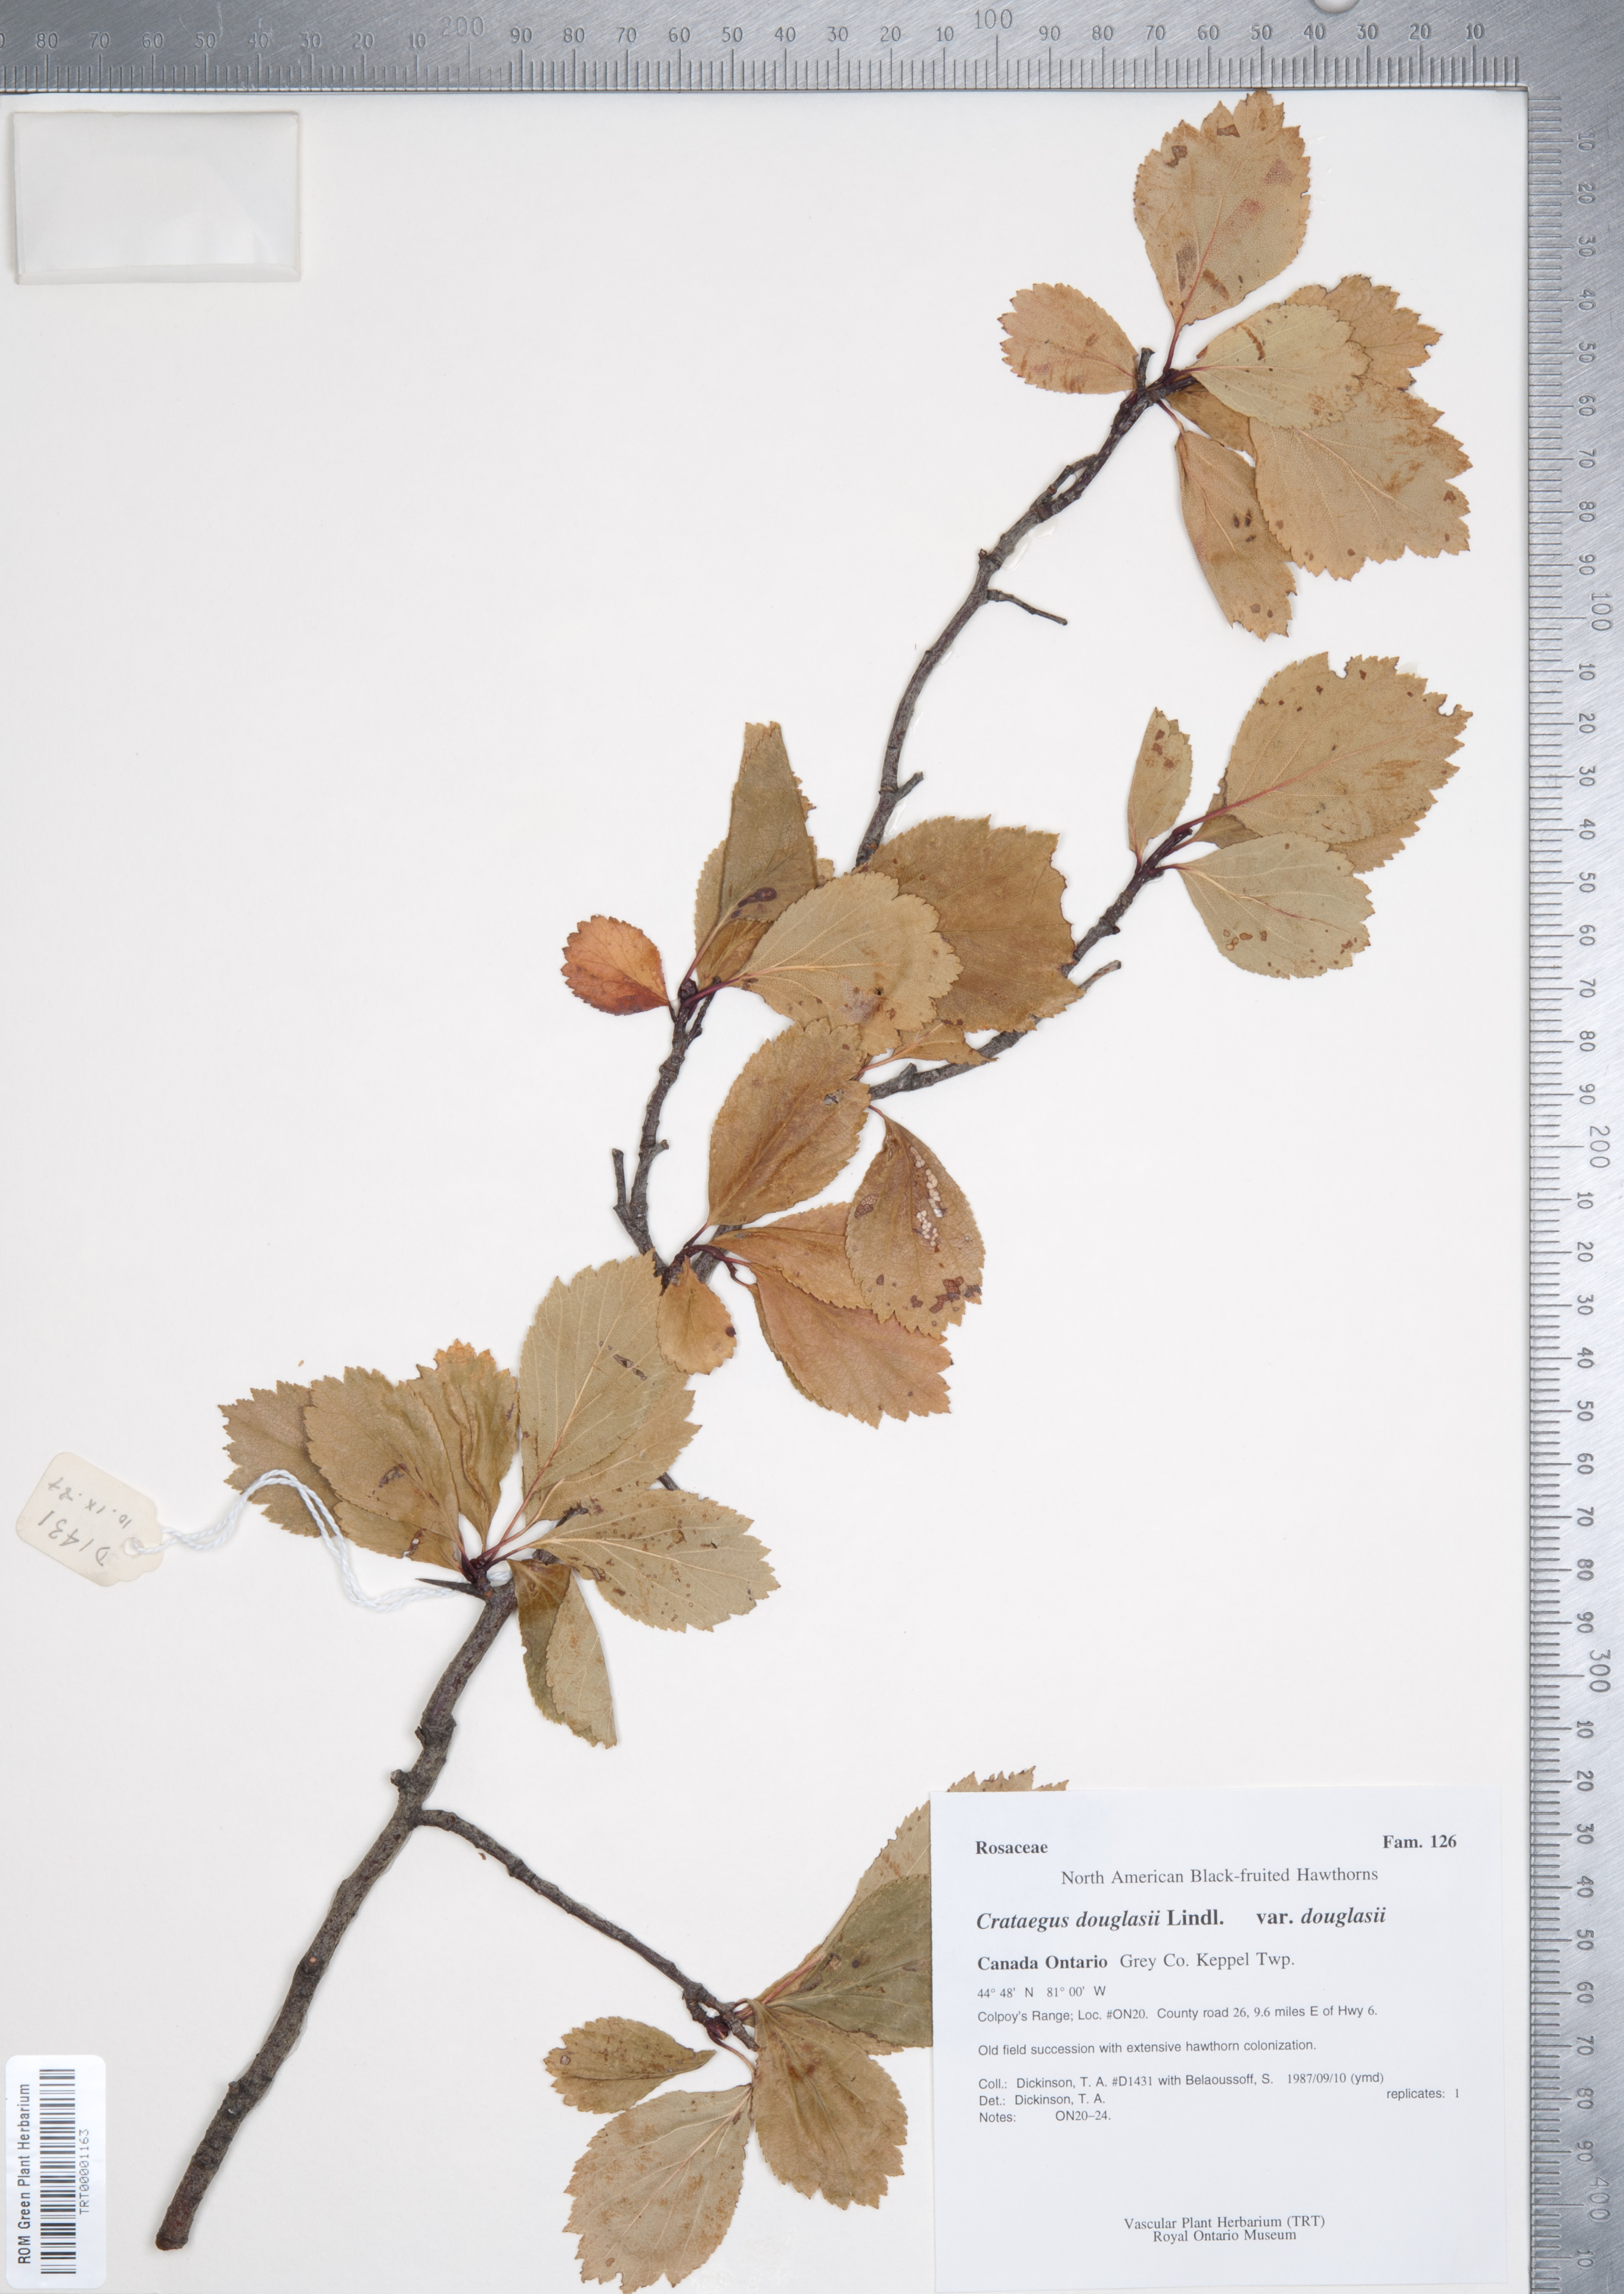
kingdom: Plantae
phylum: Tracheophyta
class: Magnoliopsida
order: Rosales
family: Rosaceae
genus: Crataegus
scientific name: Crataegus douglasii
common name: Black hawthorn
